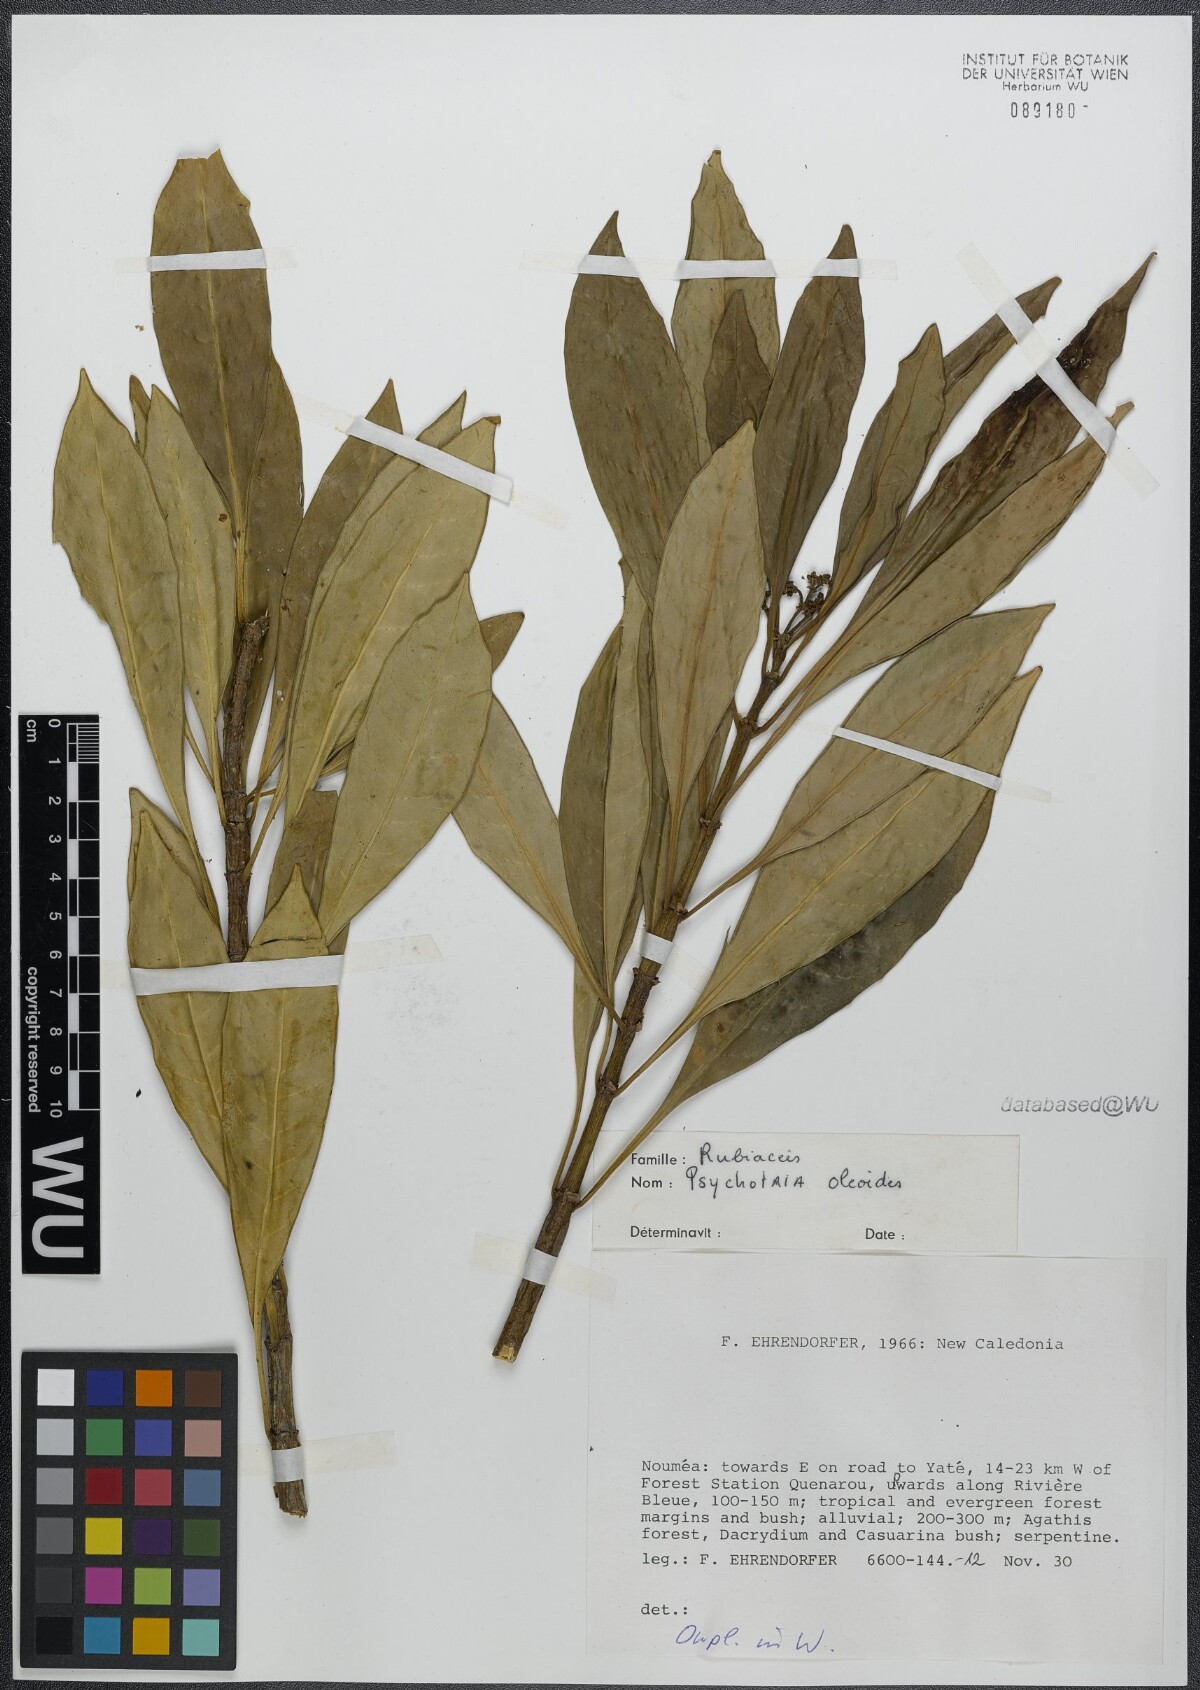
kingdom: Plantae
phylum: Tracheophyta
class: Magnoliopsida
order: Gentianales
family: Rubiaceae
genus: Eumachia
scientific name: Eumachia oleoides
